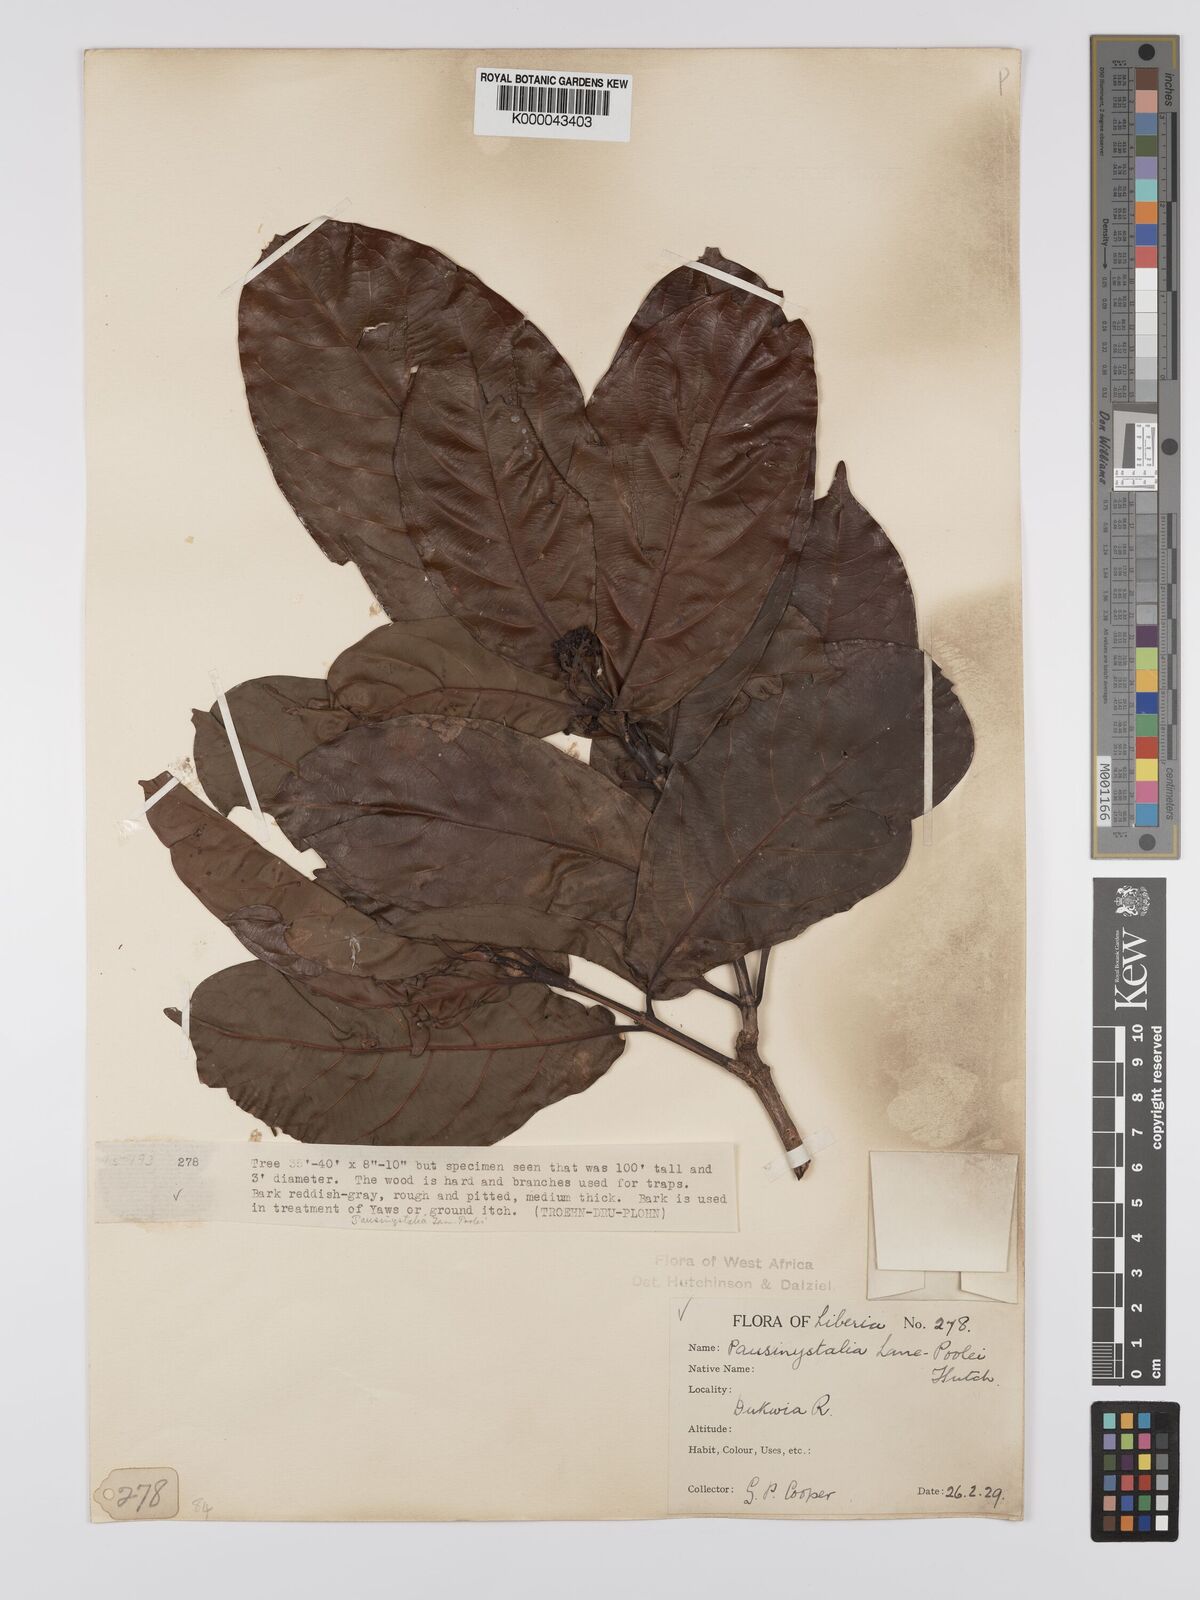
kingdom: Plantae
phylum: Tracheophyta
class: Magnoliopsida
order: Gentianales
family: Rubiaceae
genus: Corynanthe
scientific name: Corynanthe lane-poolei
